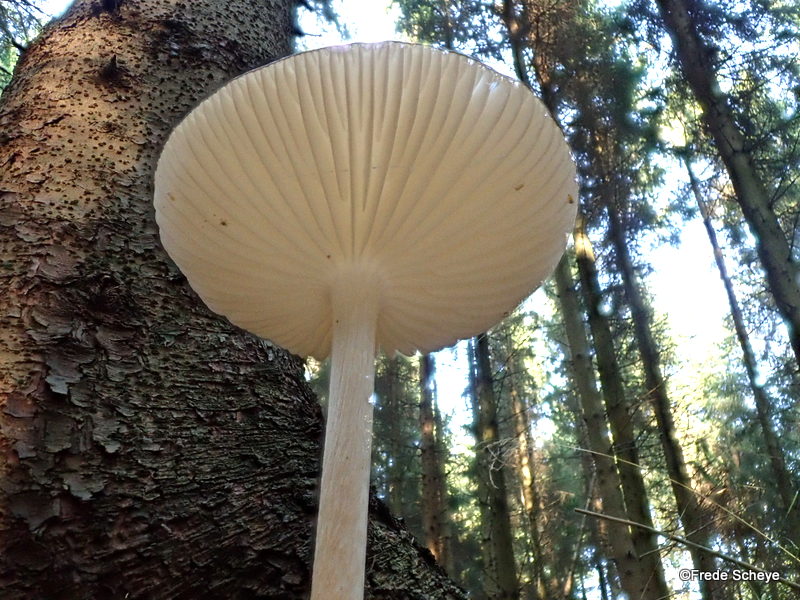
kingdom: Fungi
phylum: Basidiomycota
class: Agaricomycetes
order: Agaricales
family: Physalacriaceae
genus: Hymenopellis
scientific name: Hymenopellis radicata
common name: almindelig pælerodshat
